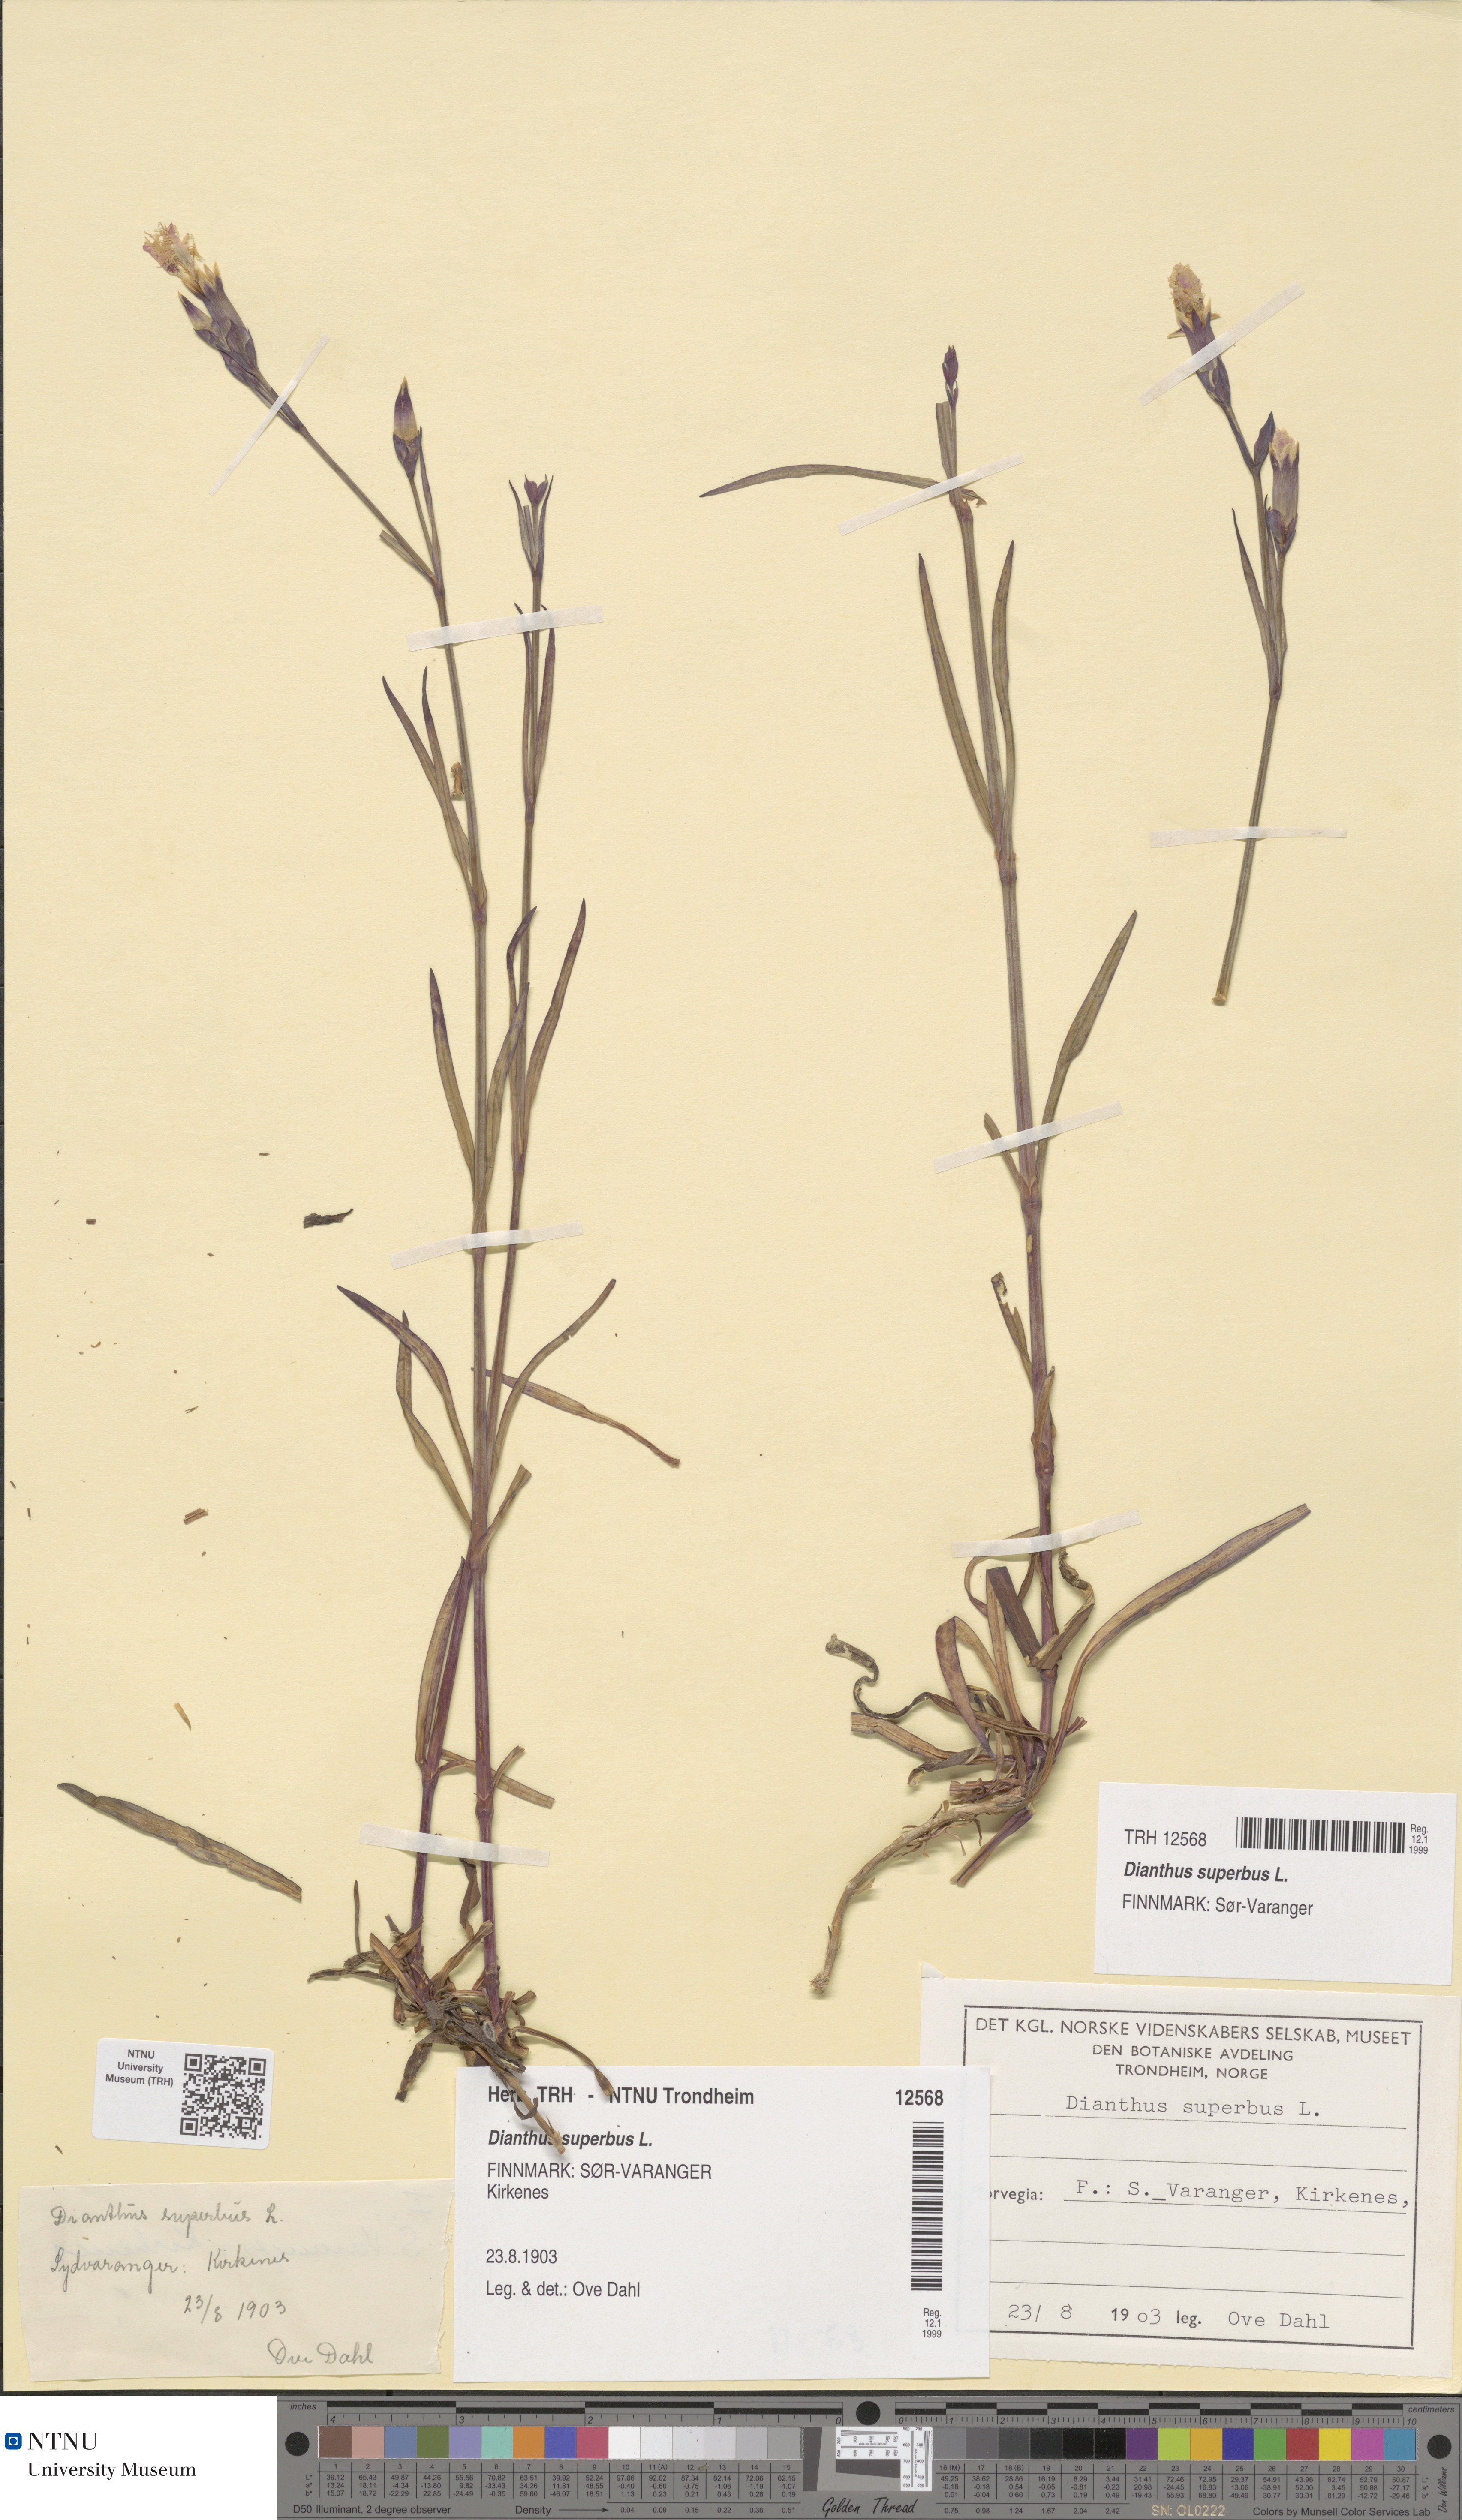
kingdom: Plantae
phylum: Tracheophyta
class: Magnoliopsida
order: Caryophyllales
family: Caryophyllaceae
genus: Dianthus
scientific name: Dianthus superbus
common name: Fringed pink
